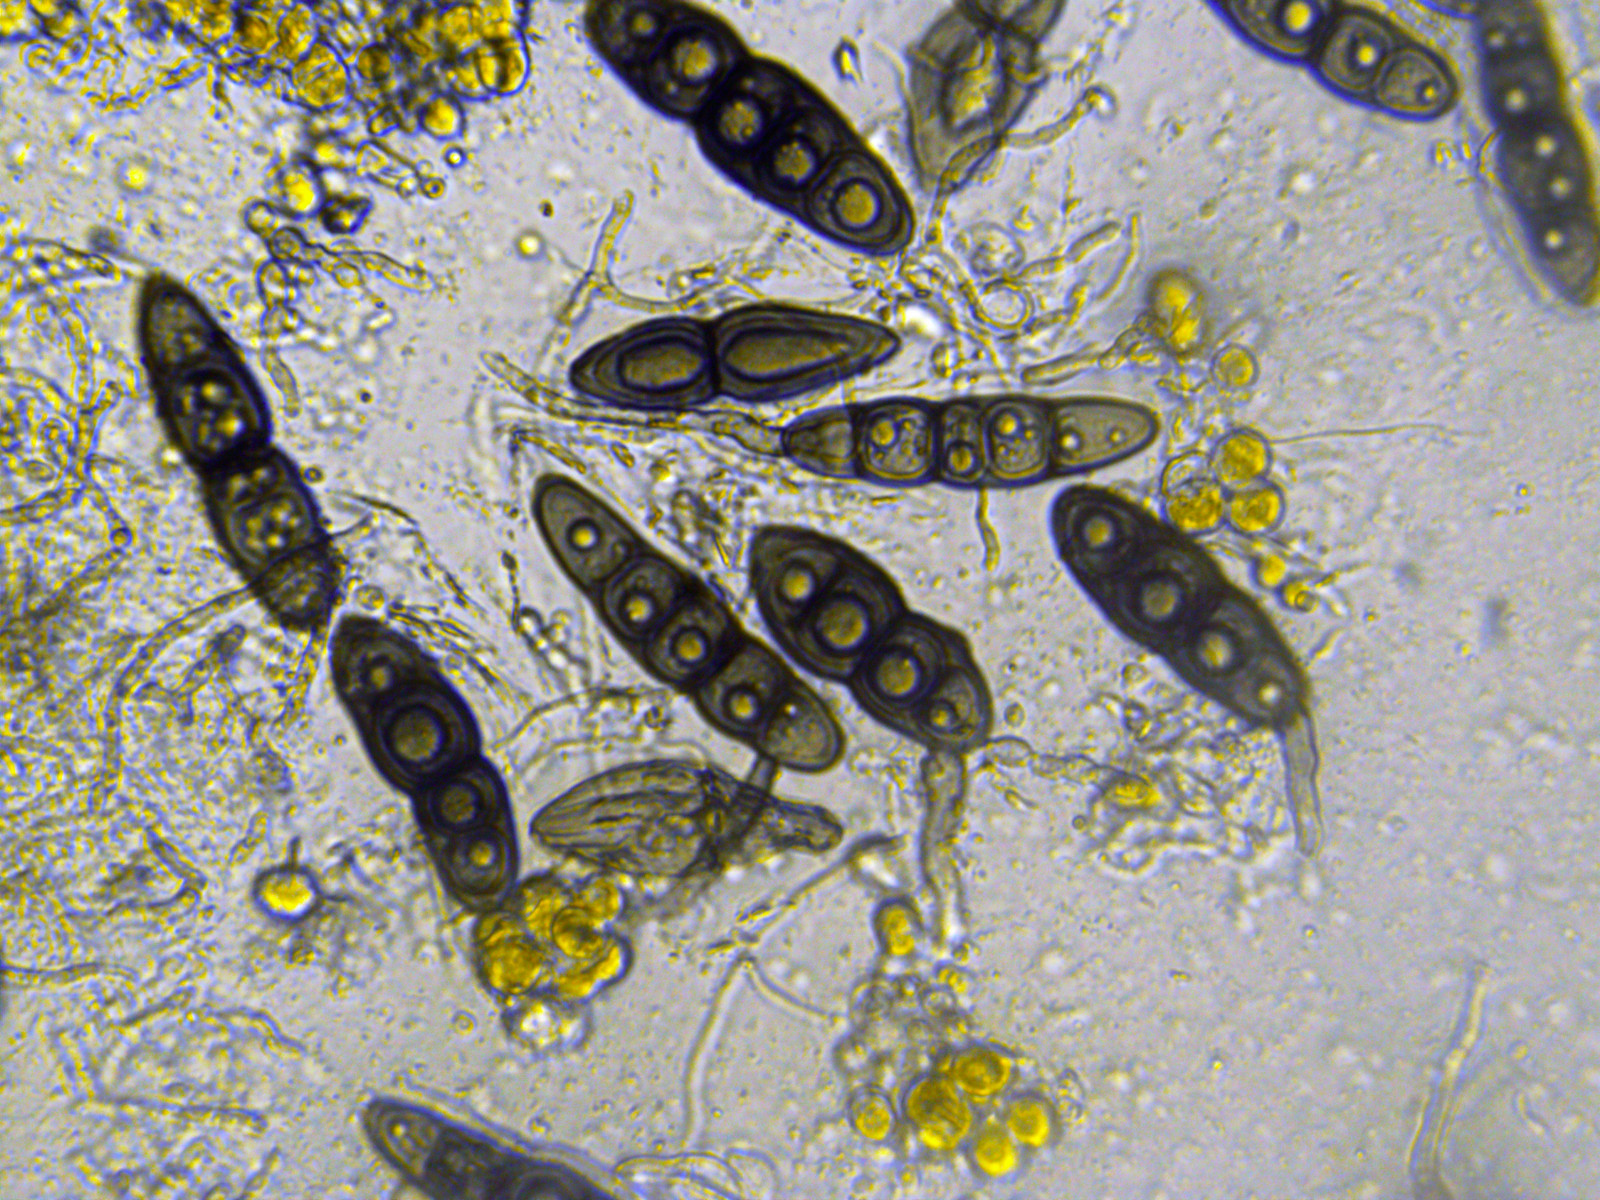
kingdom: Fungi
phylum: Ascomycota
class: Dothideomycetes
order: Pleosporales
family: Massarinaceae
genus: Pseudosplanchnonema
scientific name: Pseudosplanchnonema phorcioides
